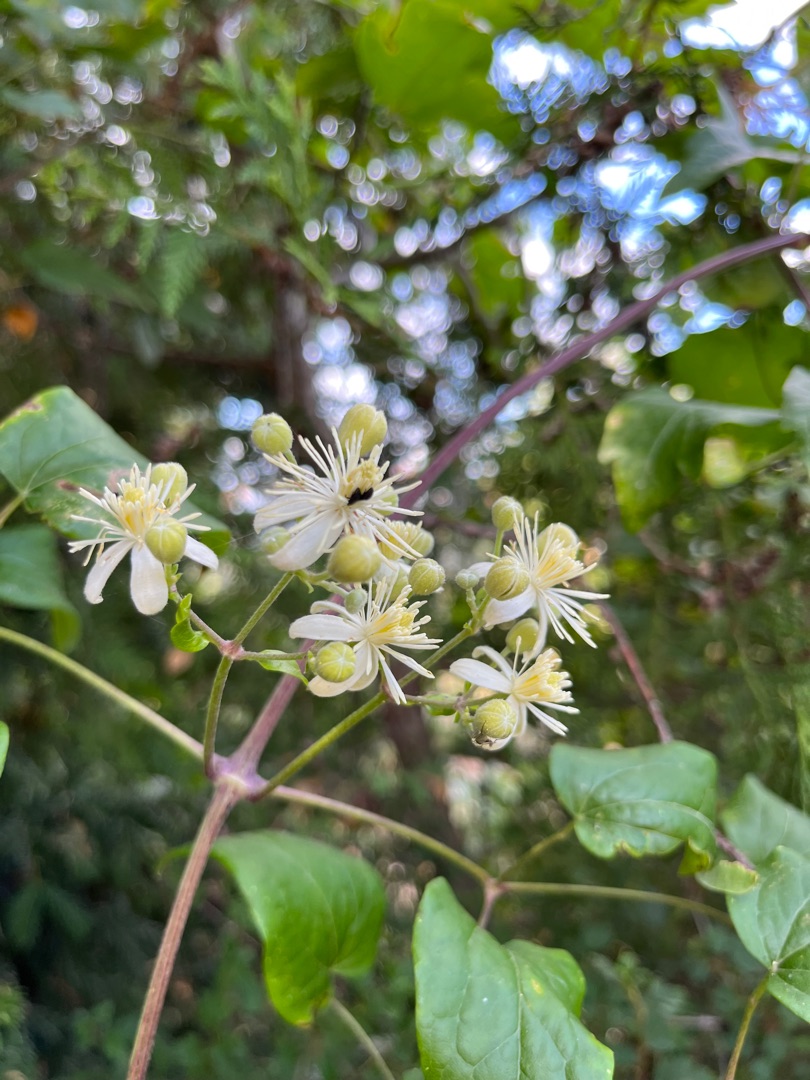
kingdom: Plantae
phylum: Tracheophyta
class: Magnoliopsida
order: Ranunculales
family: Ranunculaceae
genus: Clematis
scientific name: Clematis vitalba
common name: Skovranke
